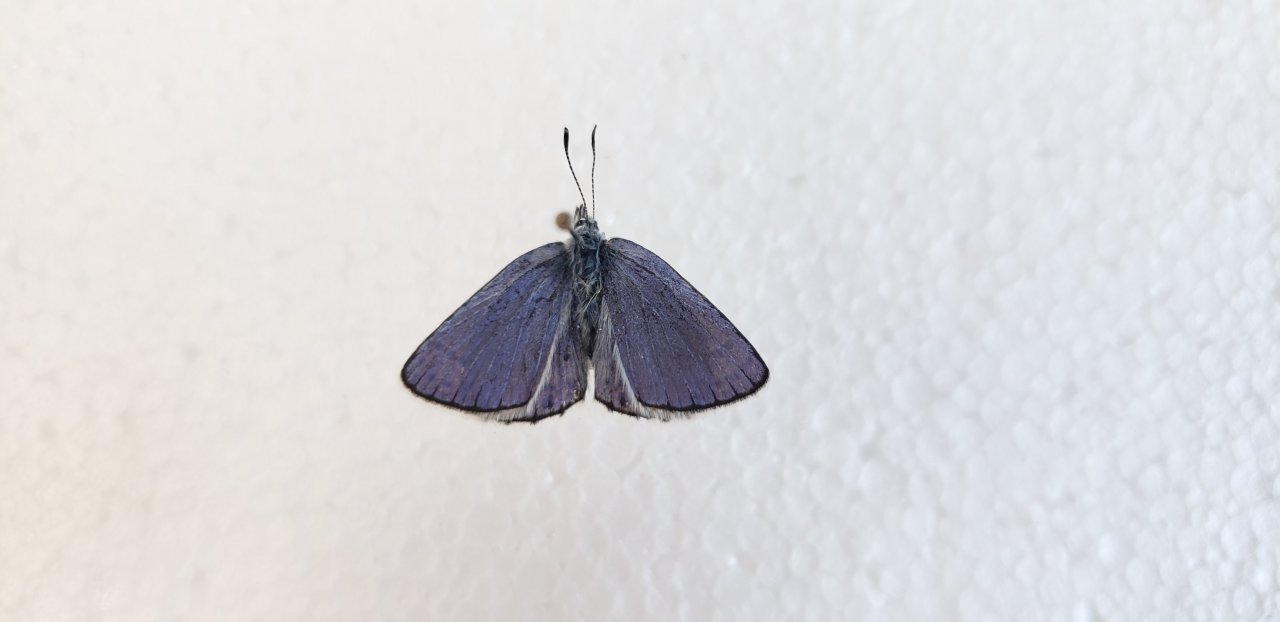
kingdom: Animalia
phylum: Arthropoda
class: Insecta
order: Lepidoptera
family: Lycaenidae
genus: Lycaeides
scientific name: Lycaeides idas
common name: Northern Blue
